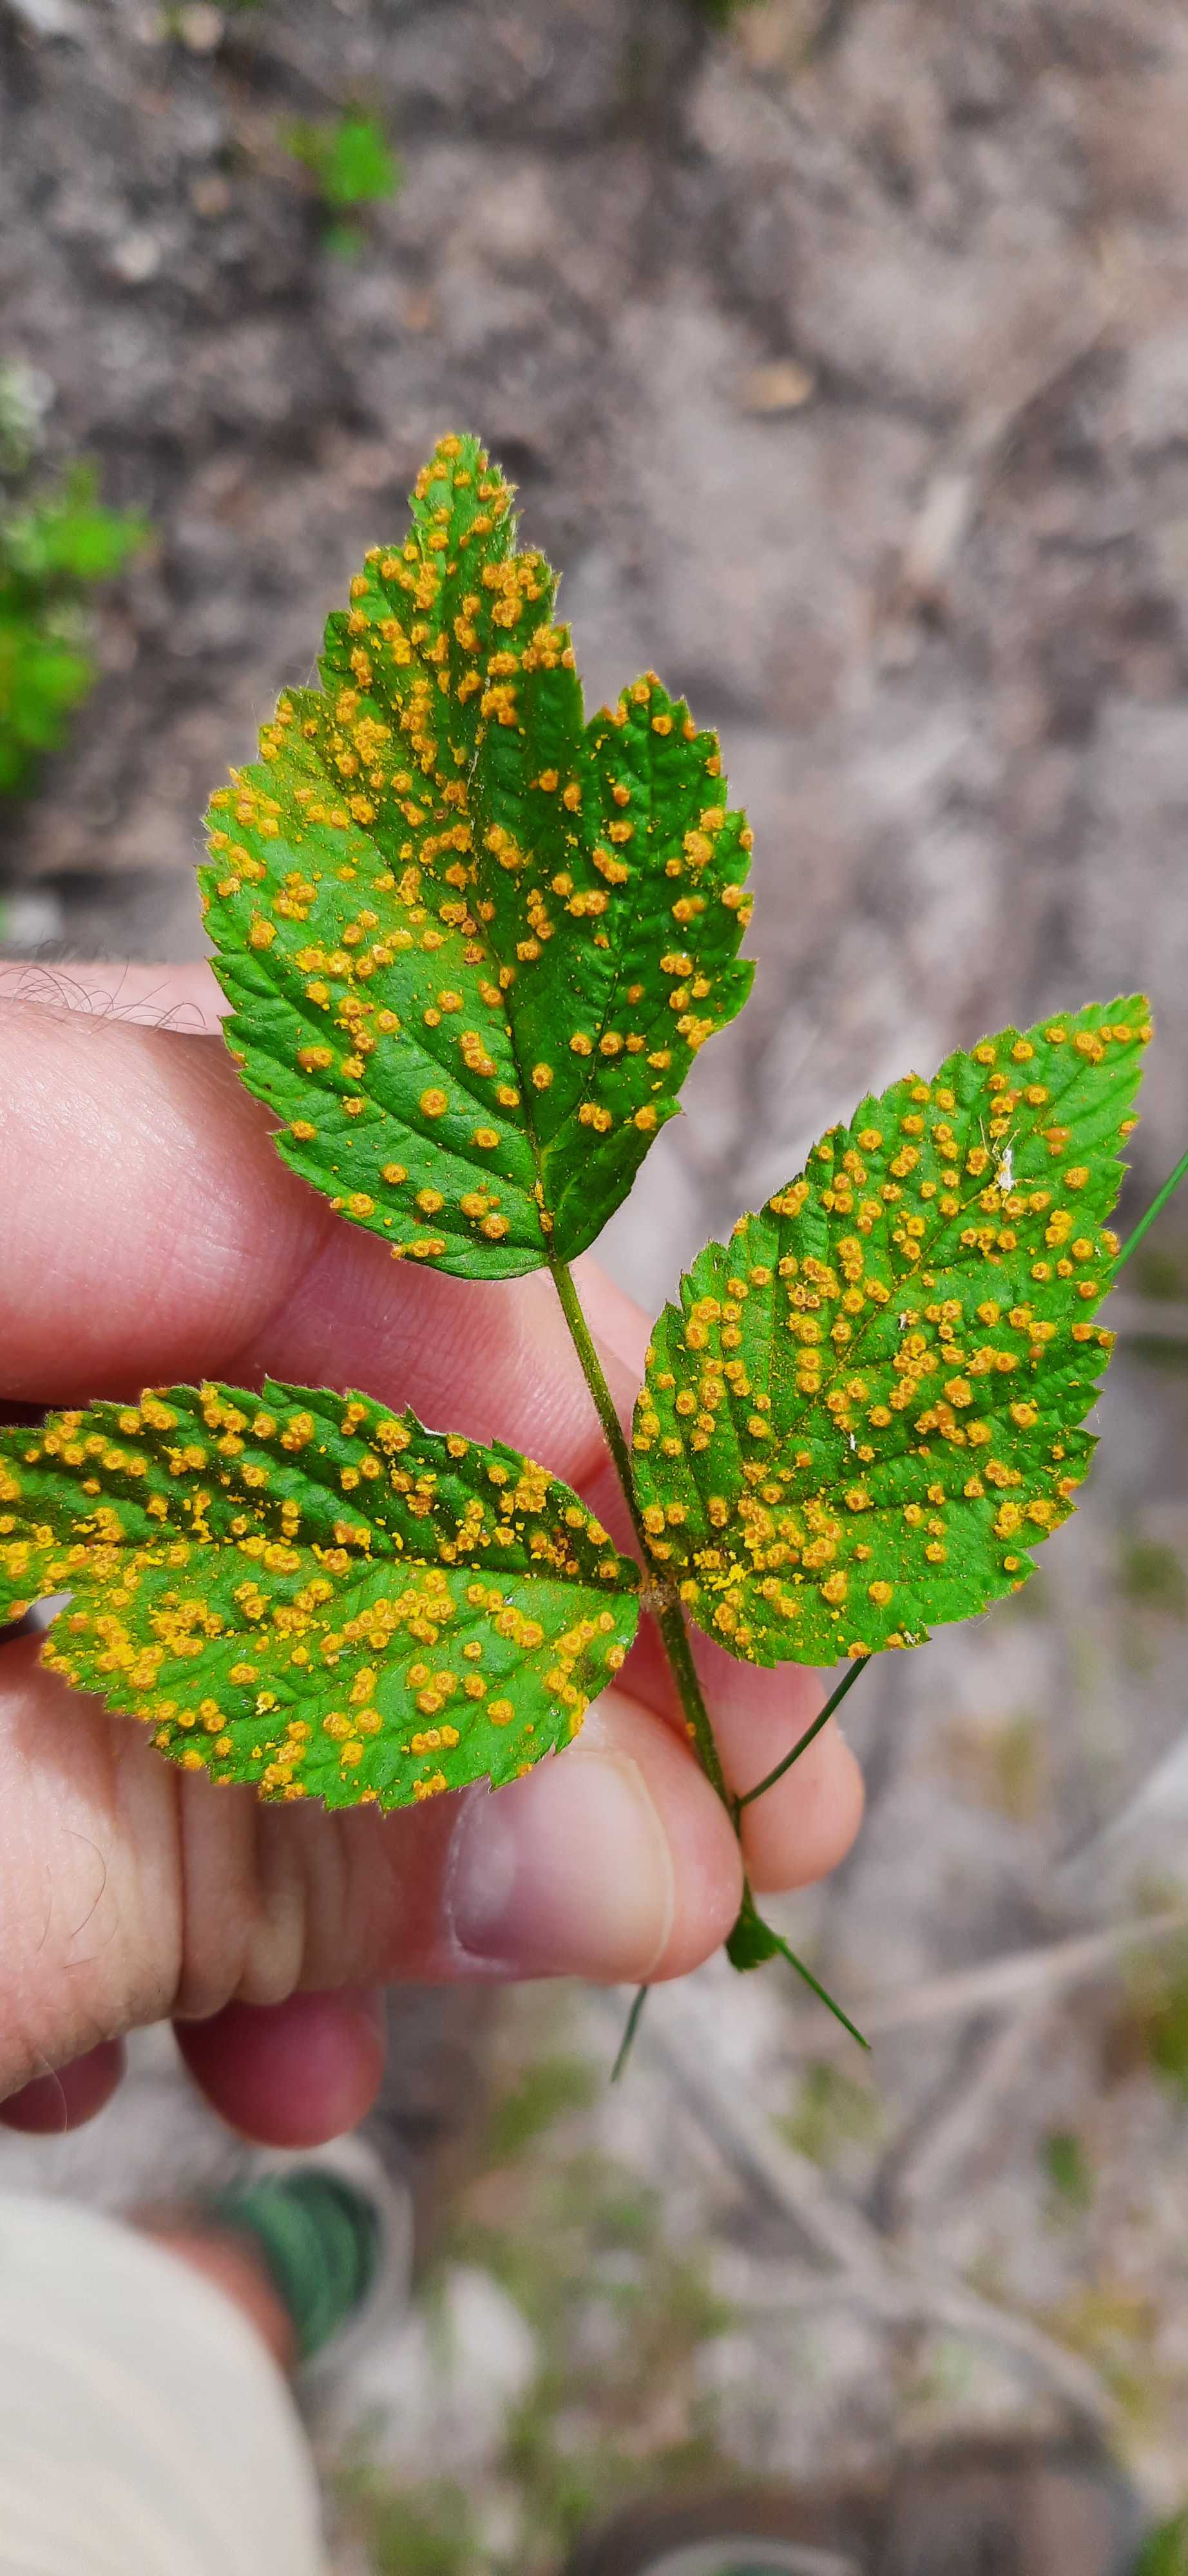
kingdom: Fungi
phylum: Basidiomycota
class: Pucciniomycetes
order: Pucciniales
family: Phragmidiaceae
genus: Phragmidium
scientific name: Phragmidium rubi-idaei
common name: hindbær-flercellerust
